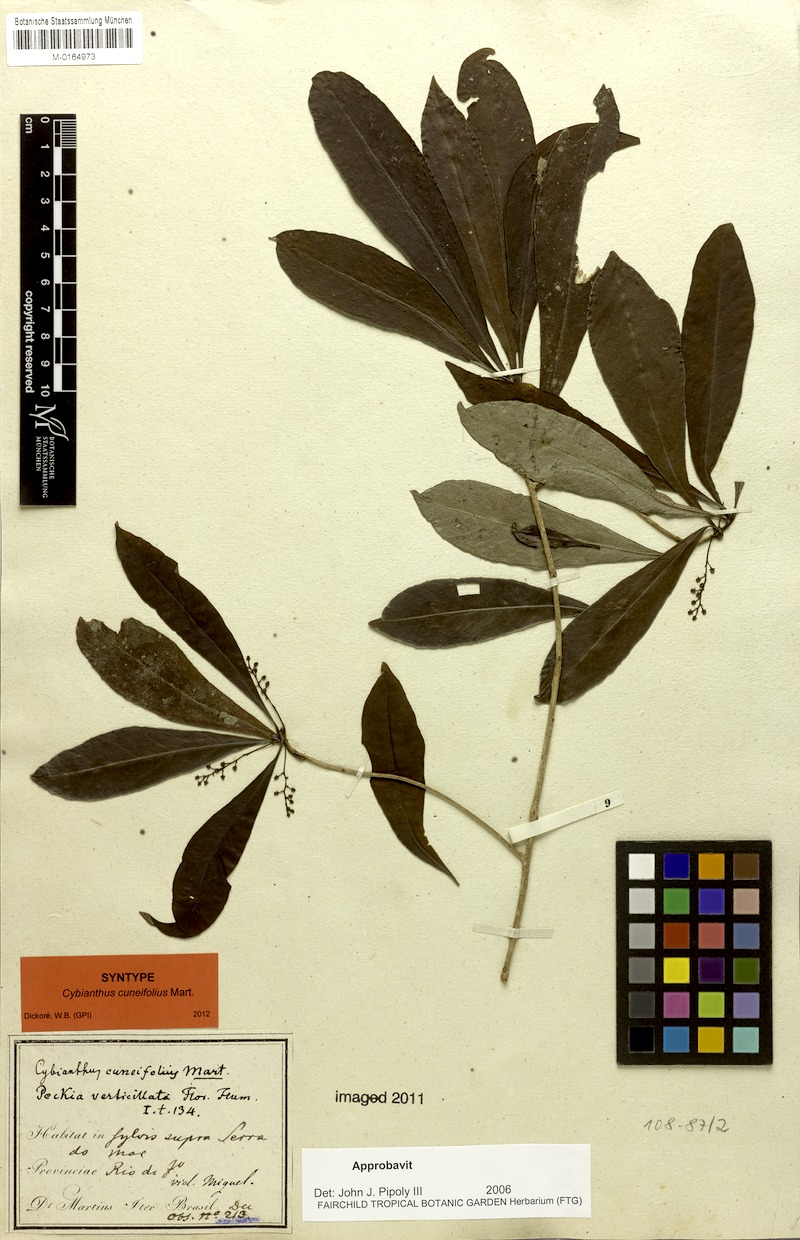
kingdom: Plantae
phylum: Tracheophyta
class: Magnoliopsida
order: Ericales
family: Primulaceae
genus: Cybianthus
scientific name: Cybianthus pastensis
